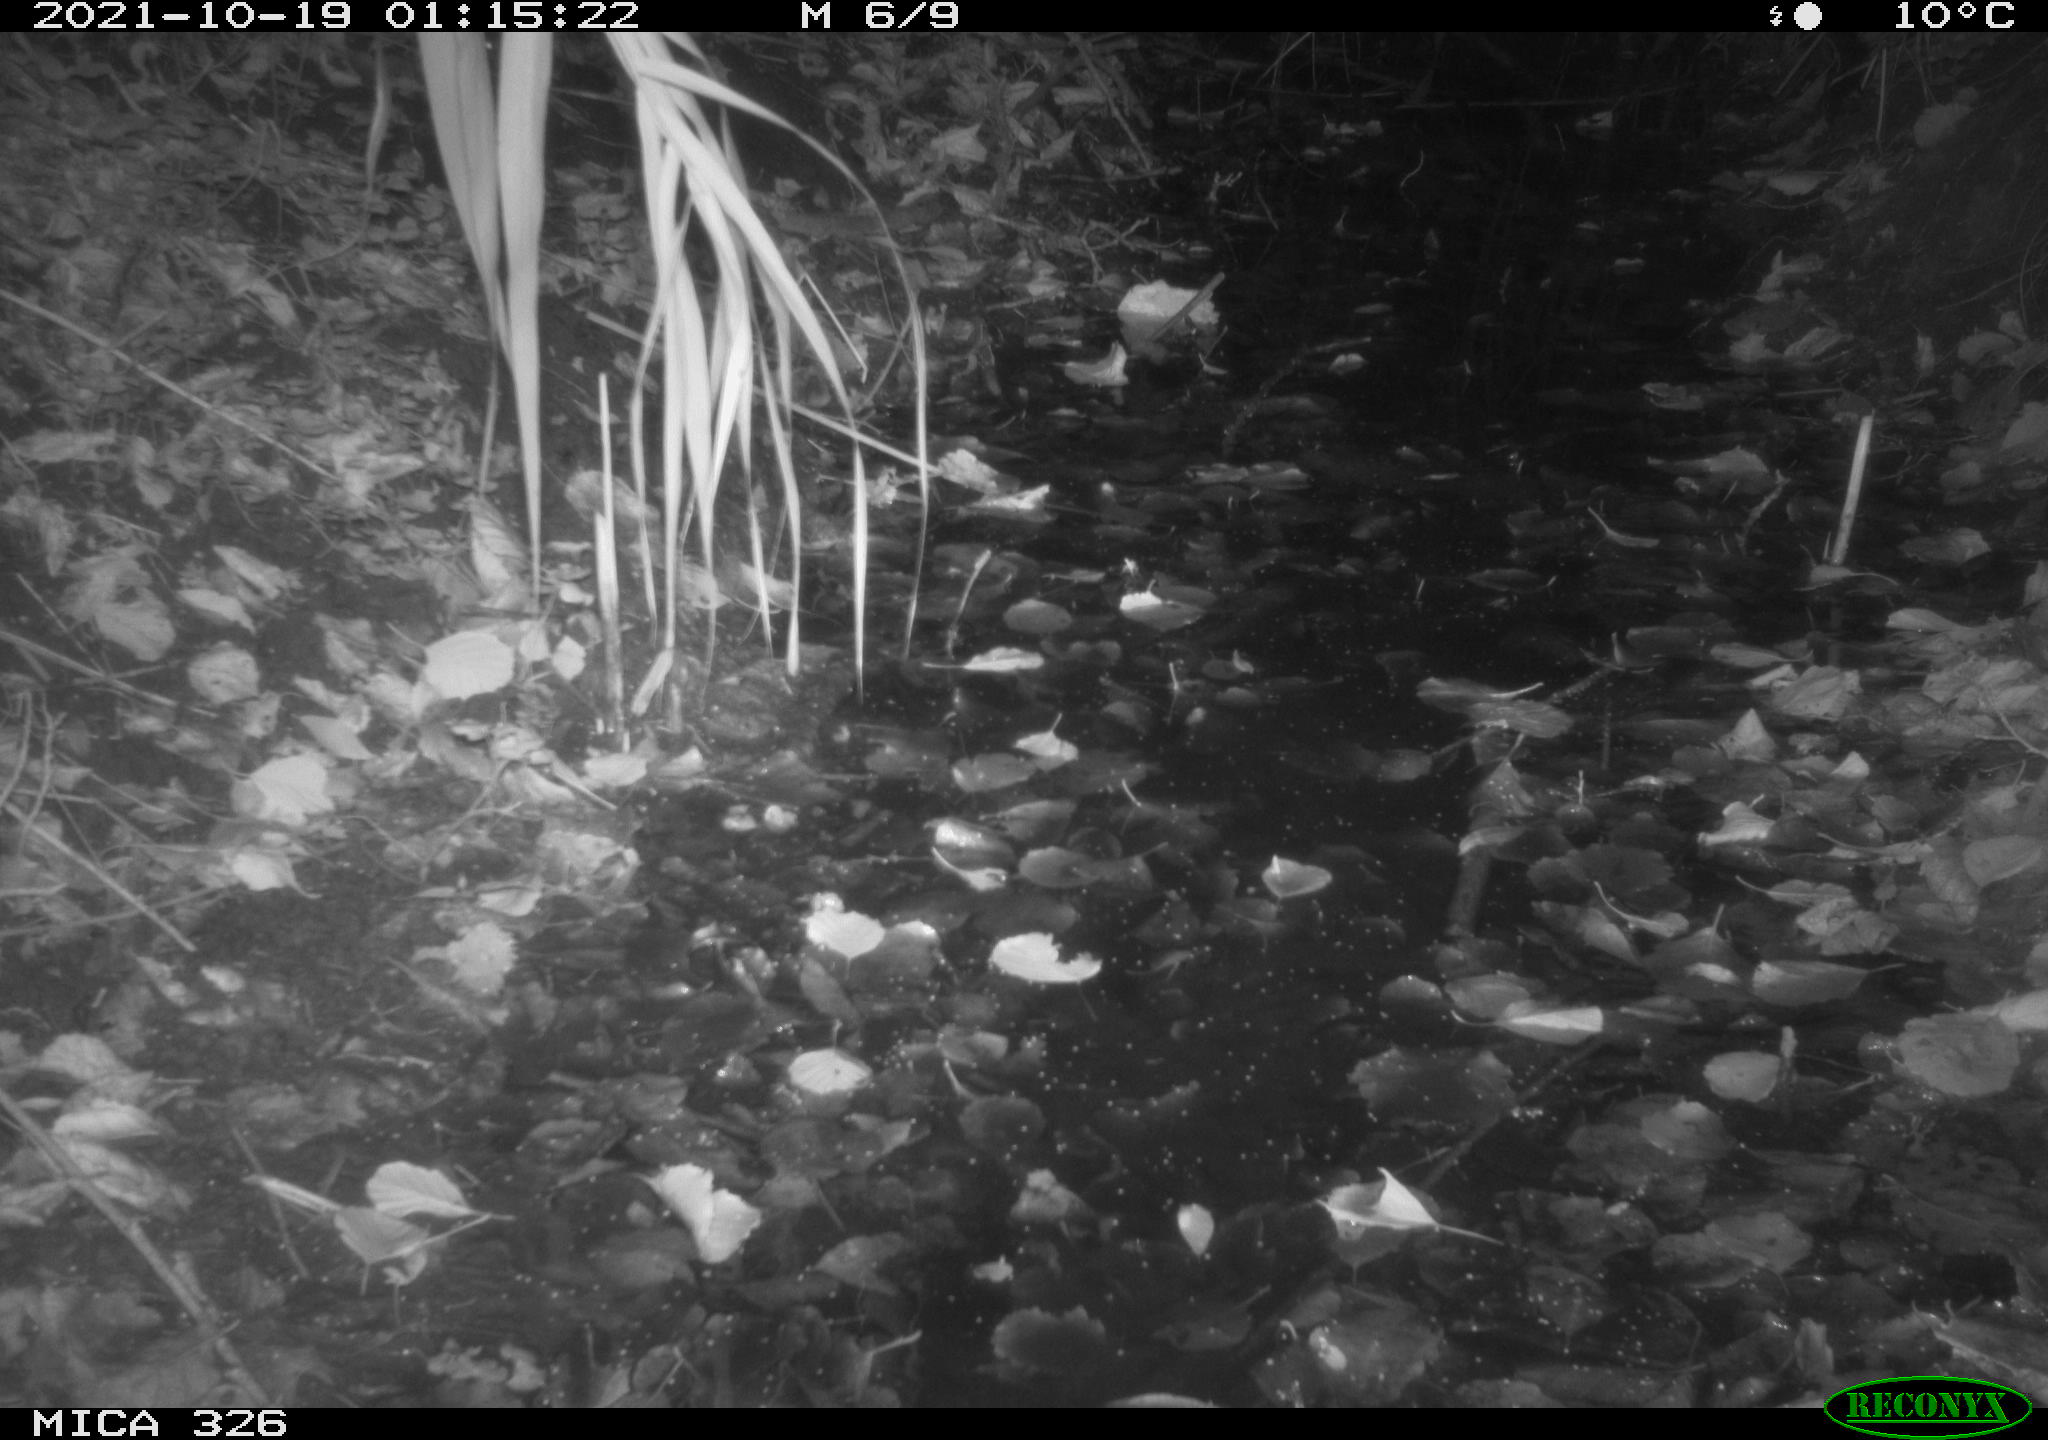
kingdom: Animalia
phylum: Chordata
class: Mammalia
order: Rodentia
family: Myocastoridae
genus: Myocastor
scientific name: Myocastor coypus
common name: Coypu
